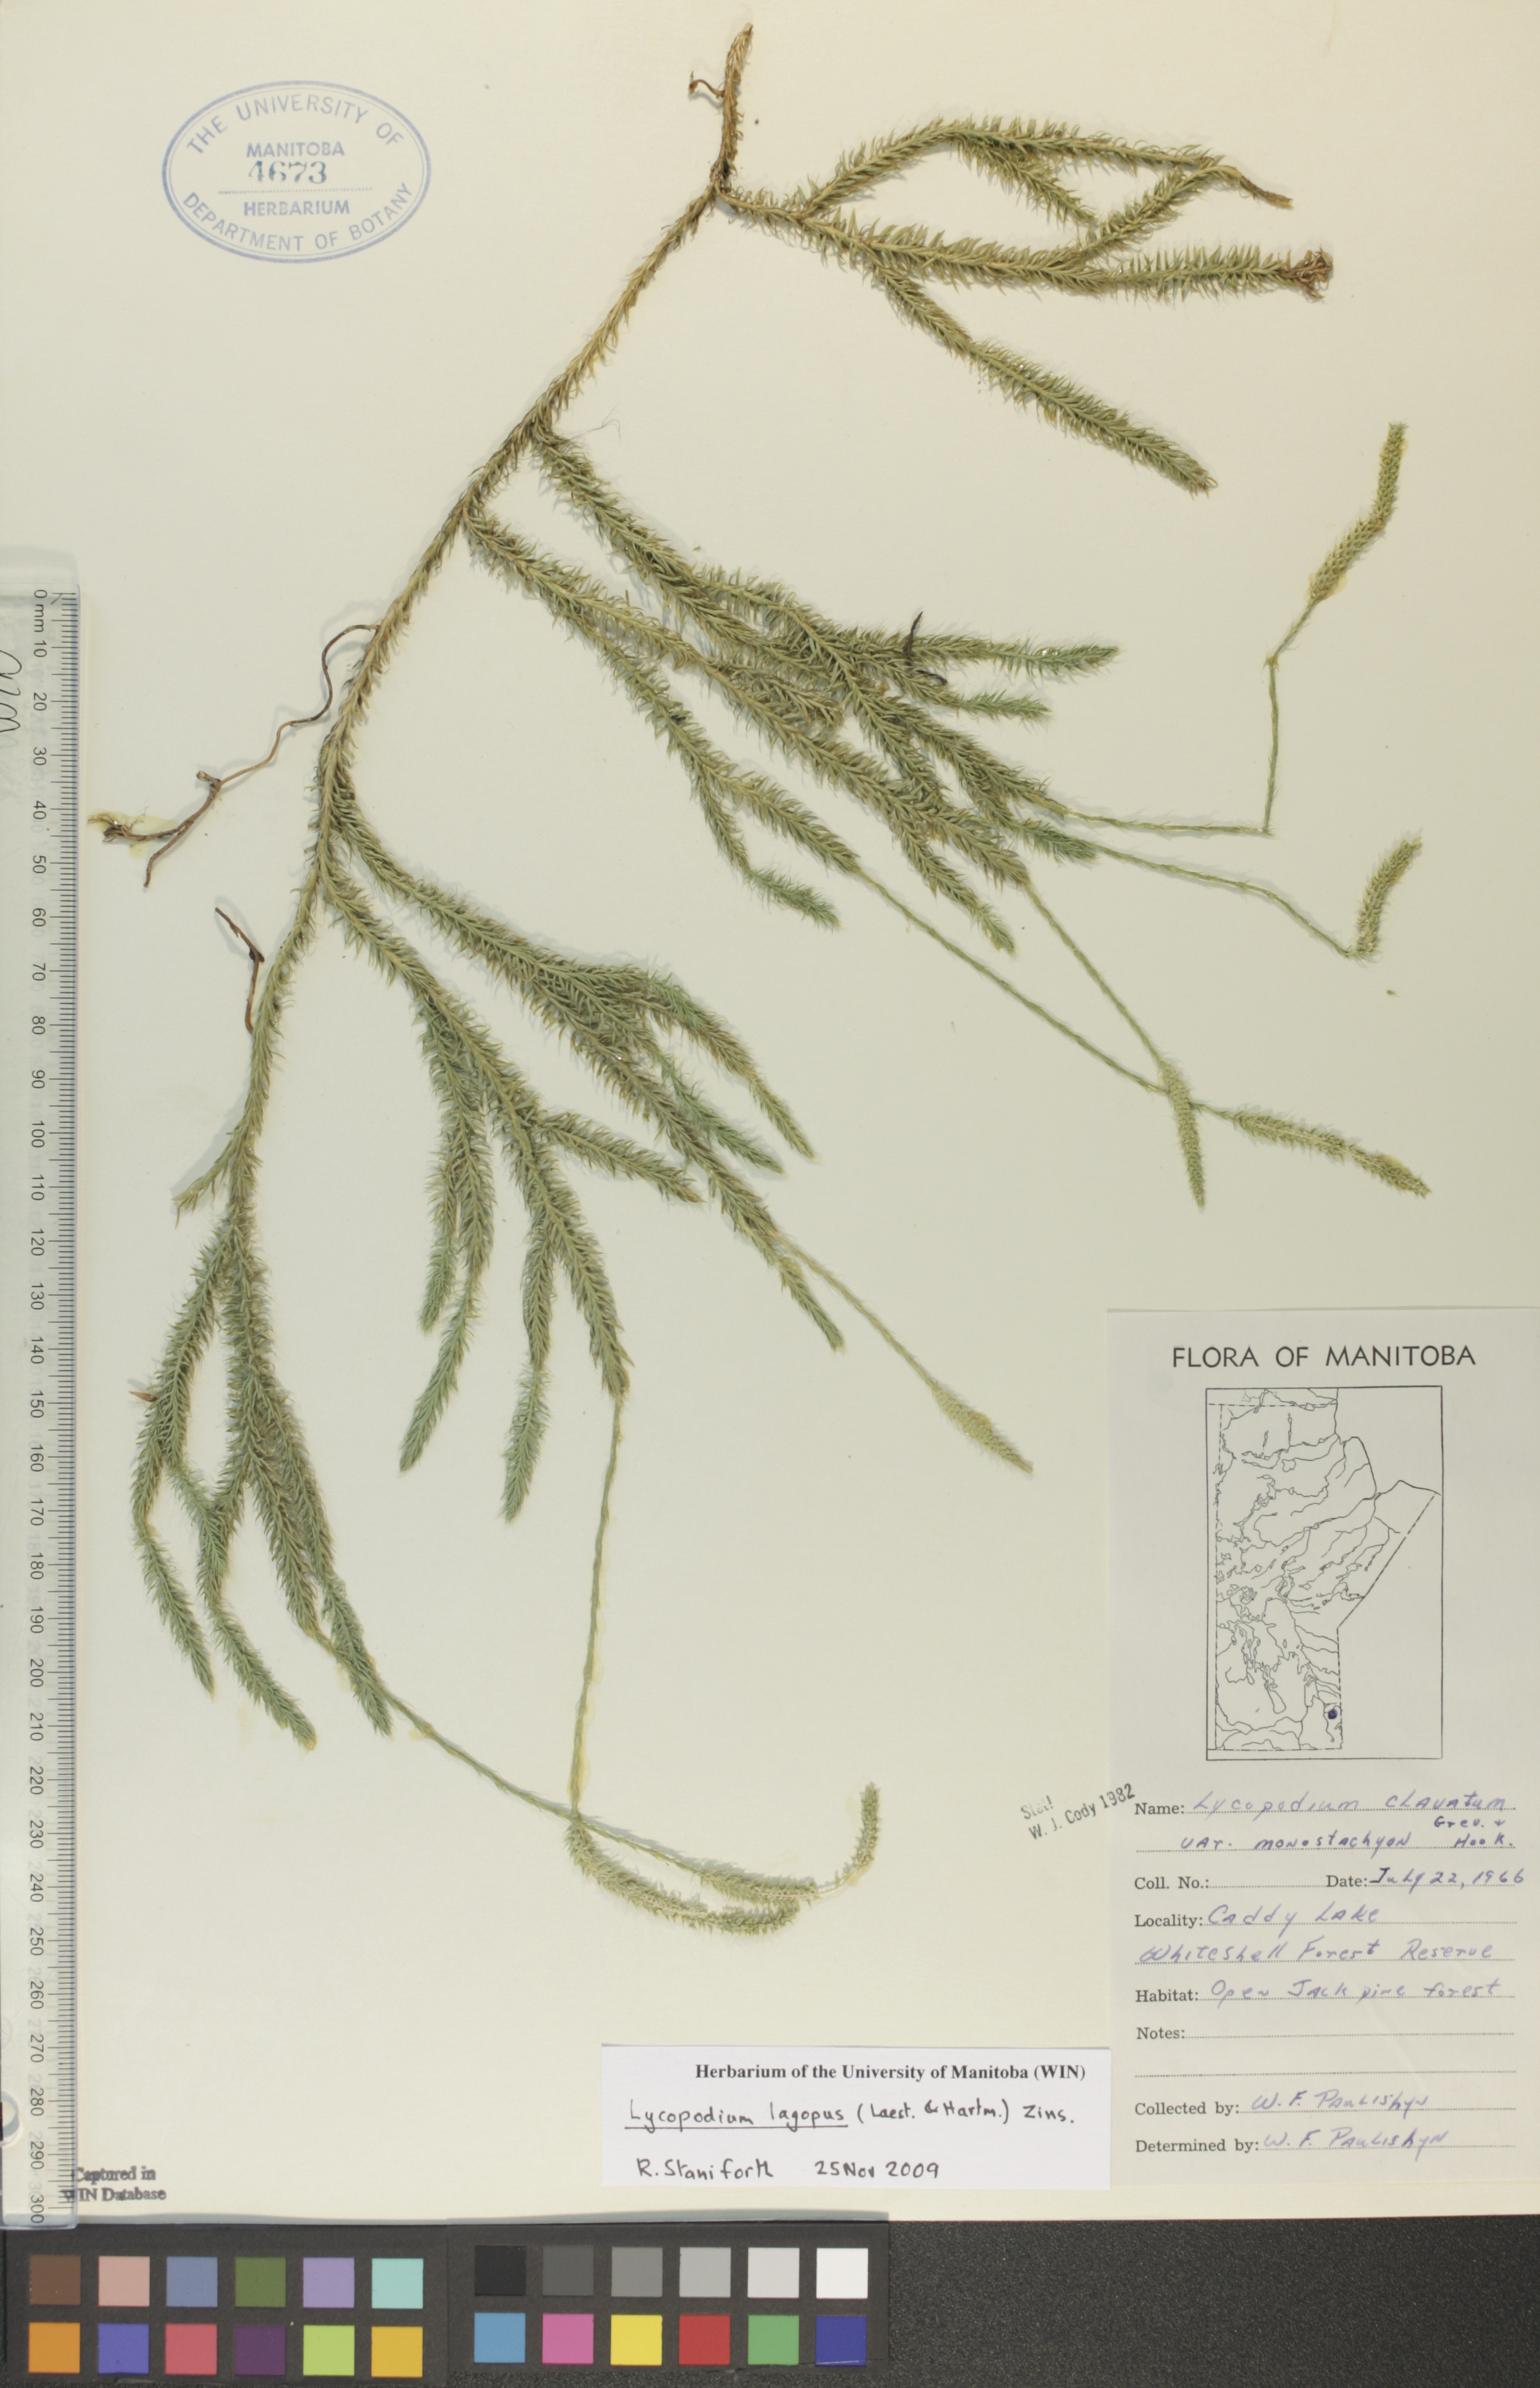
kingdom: Plantae
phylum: Tracheophyta
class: Lycopodiopsida
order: Lycopodiales
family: Lycopodiaceae
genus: Lycopodium
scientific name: Lycopodium lagopus
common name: One-cone clubmoss
